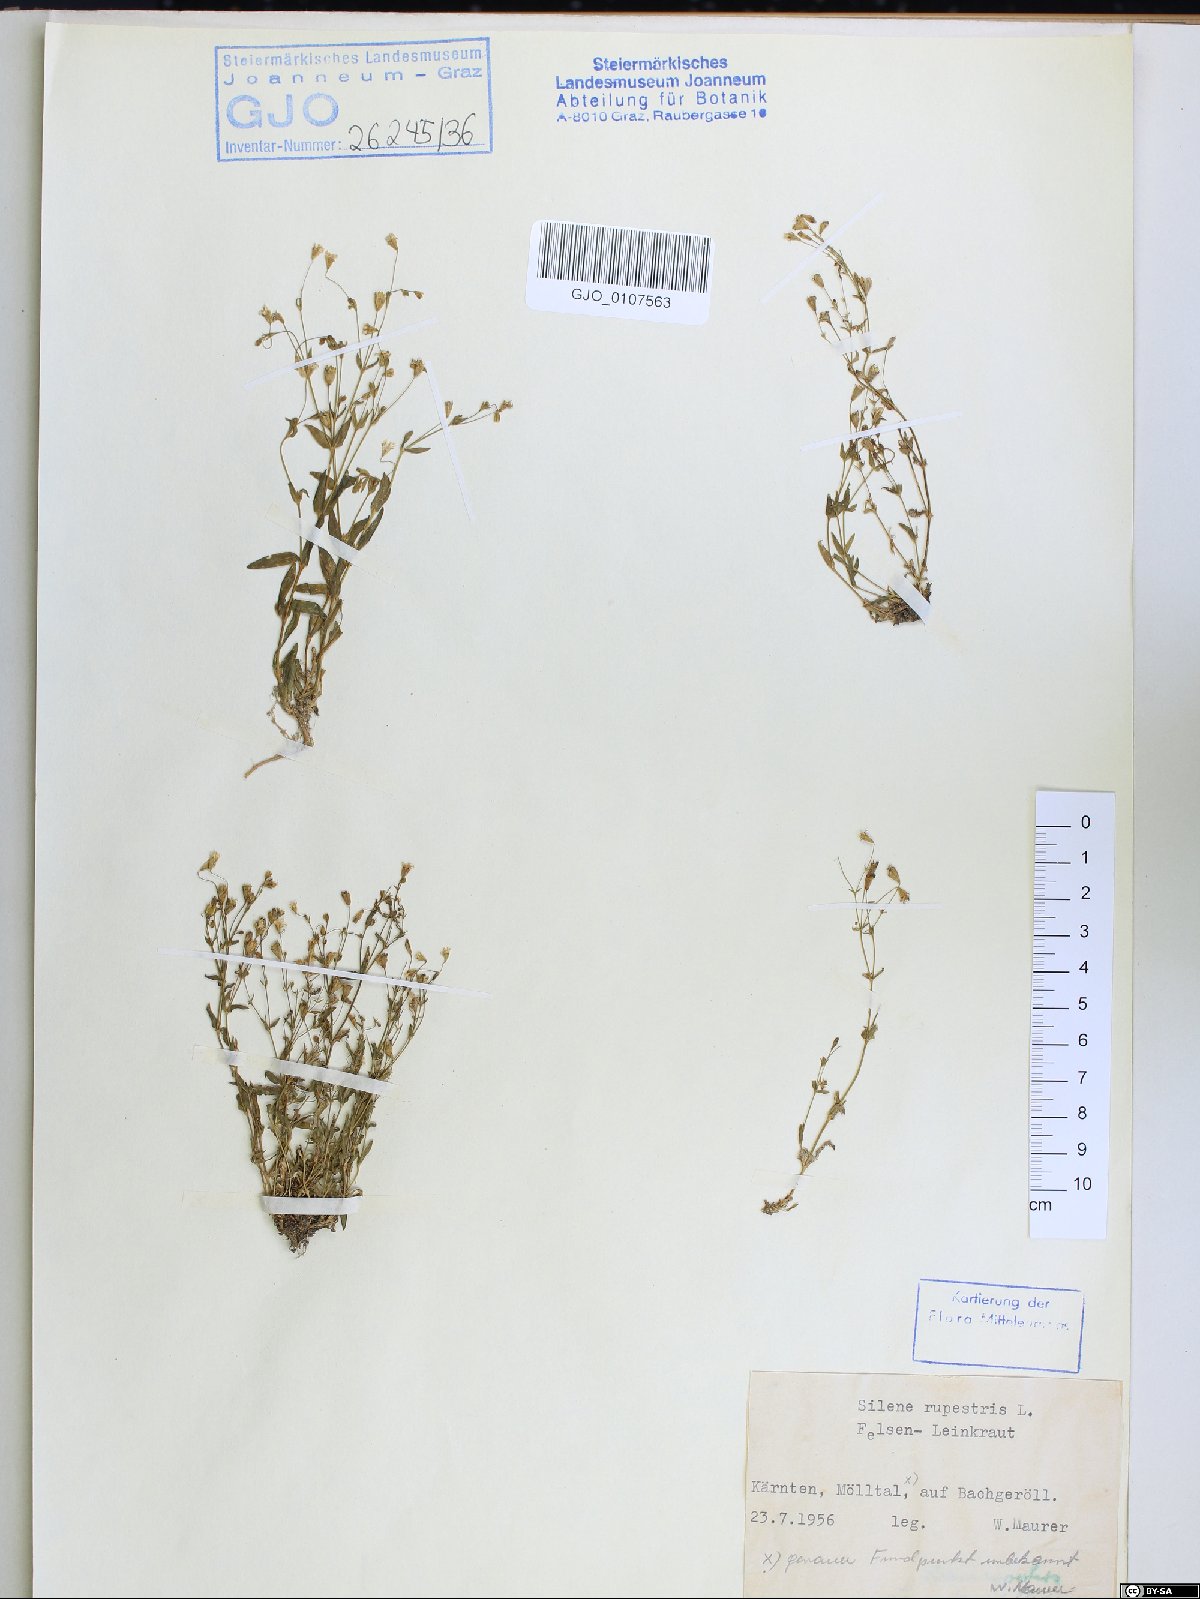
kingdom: Plantae
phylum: Tracheophyta
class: Magnoliopsida
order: Caryophyllales
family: Caryophyllaceae
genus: Atocion
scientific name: Atocion rupestre
